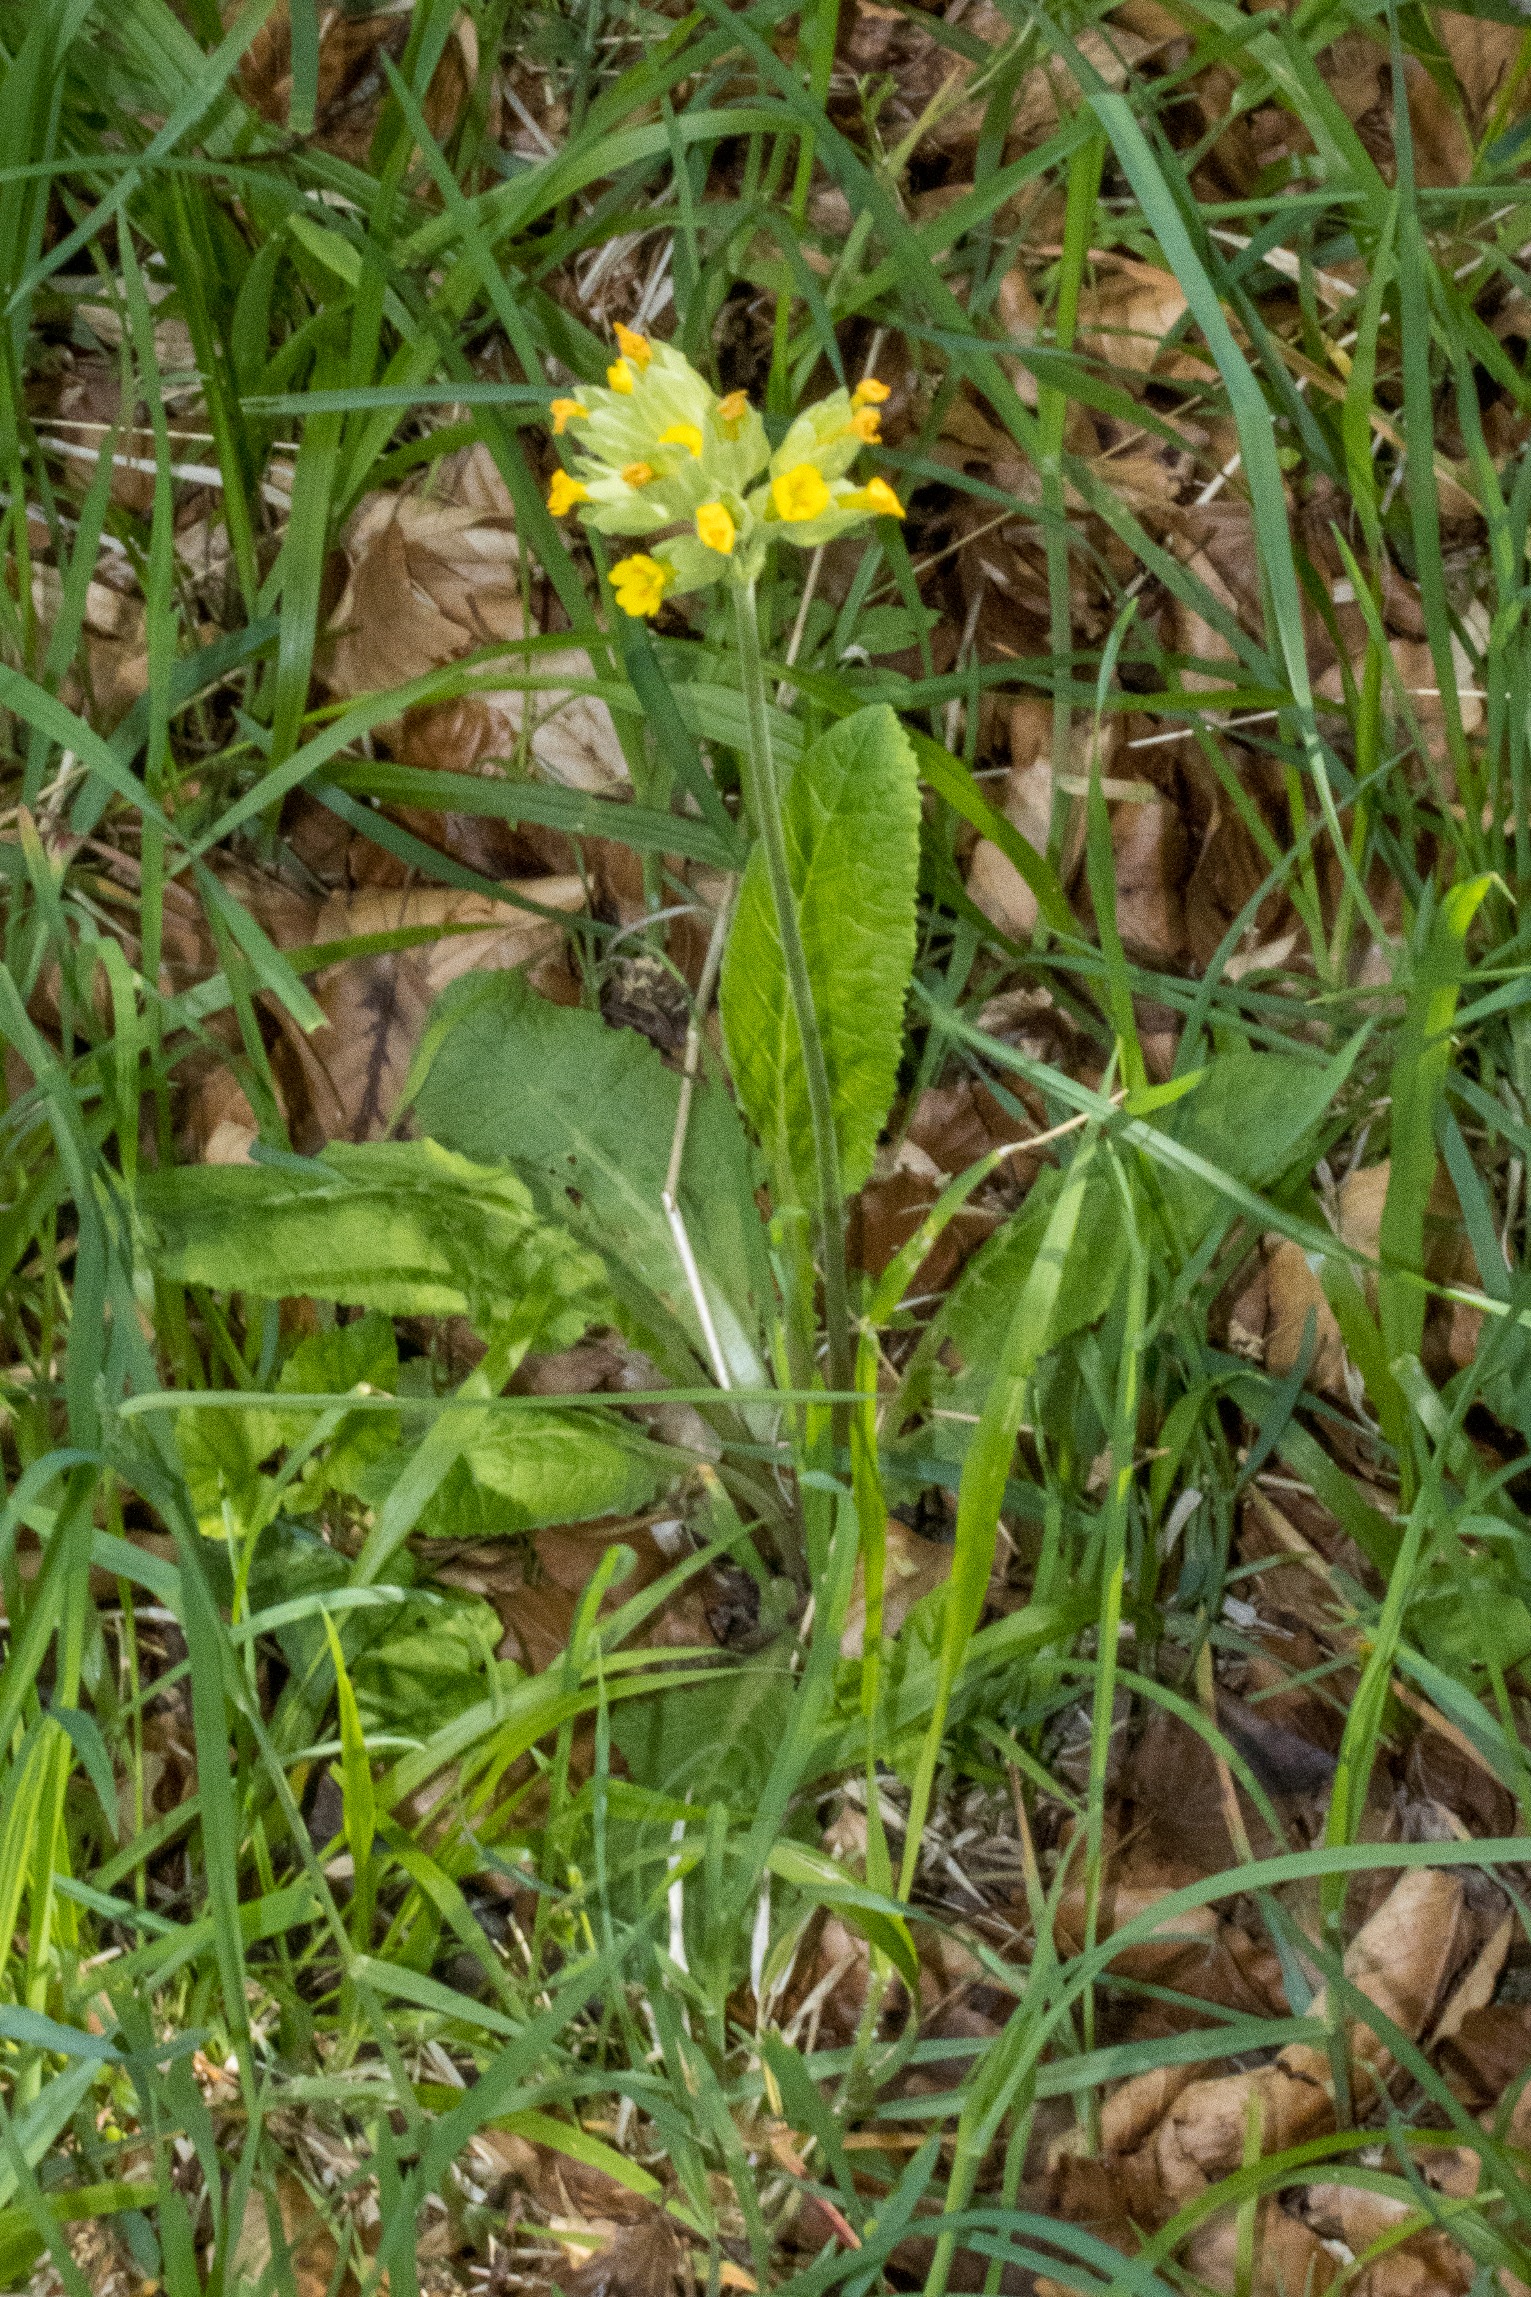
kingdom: Plantae
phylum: Tracheophyta
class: Magnoliopsida
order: Ericales
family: Primulaceae
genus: Primula
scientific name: Primula veris
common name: Hulkravet kodriver
